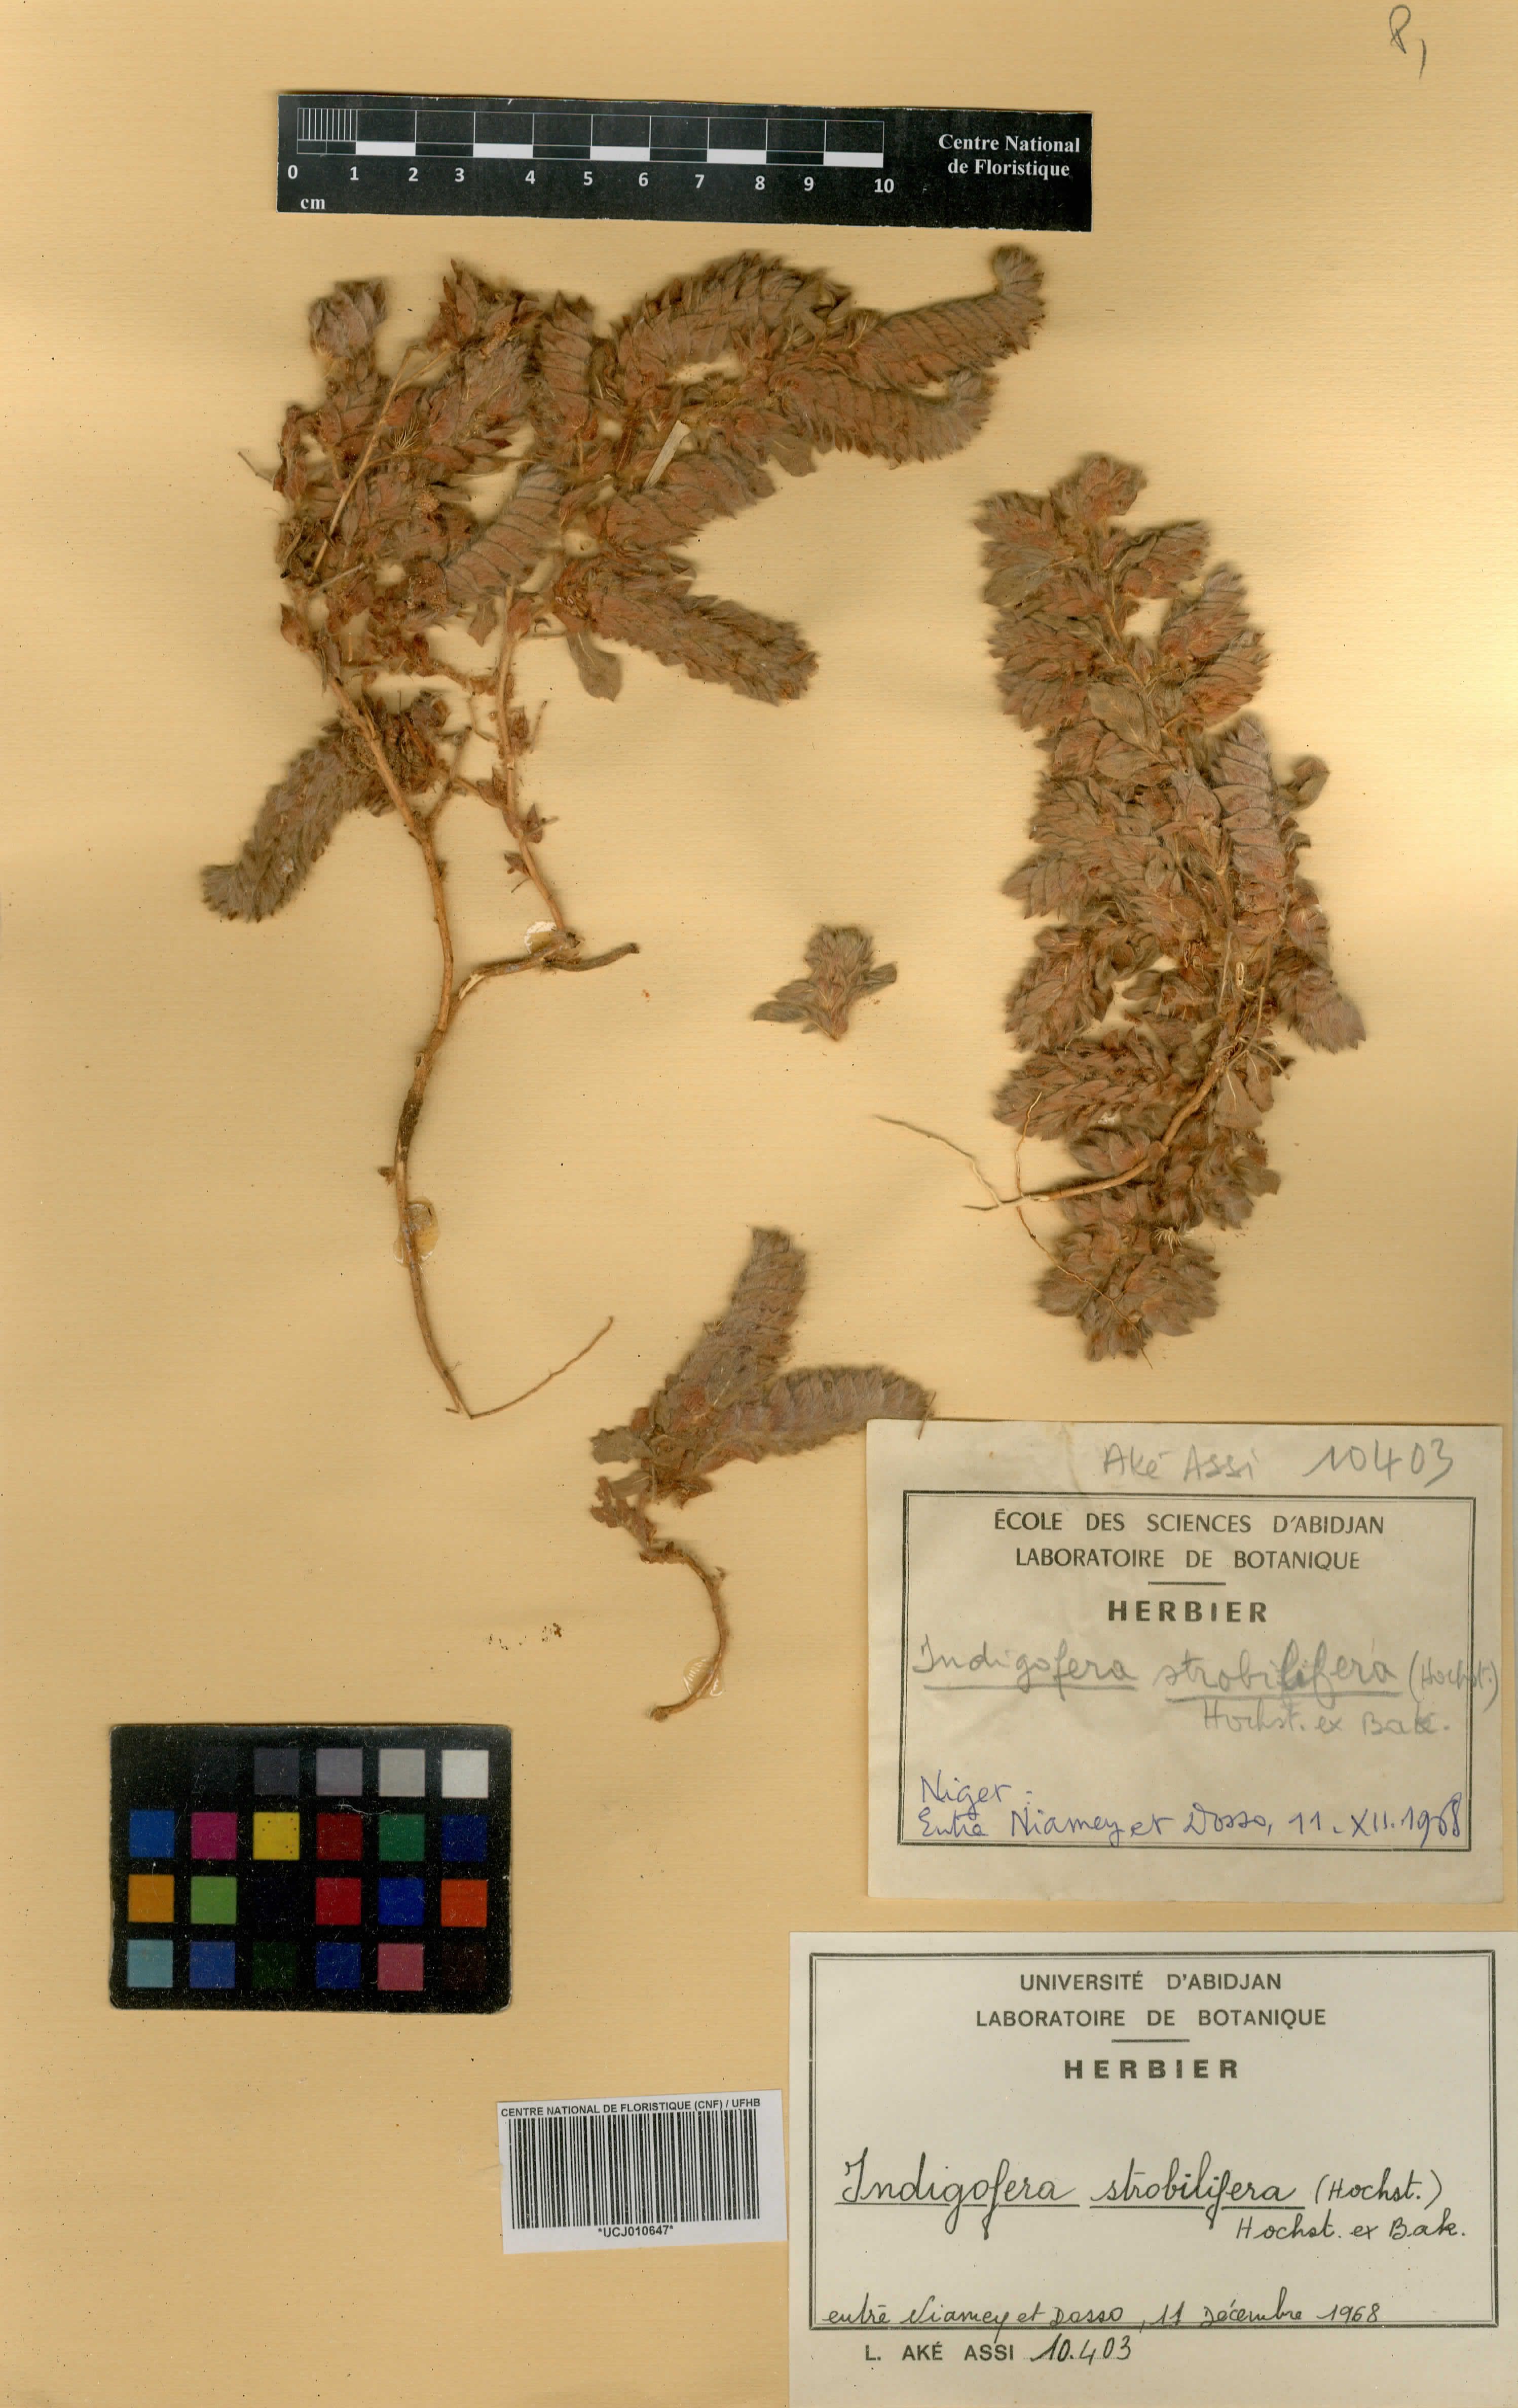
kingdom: Plantae
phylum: Tracheophyta
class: Magnoliopsida
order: Fabales
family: Fabaceae
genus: Indigofera
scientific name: Indigofera suffruticosa
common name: Anil de pasto
